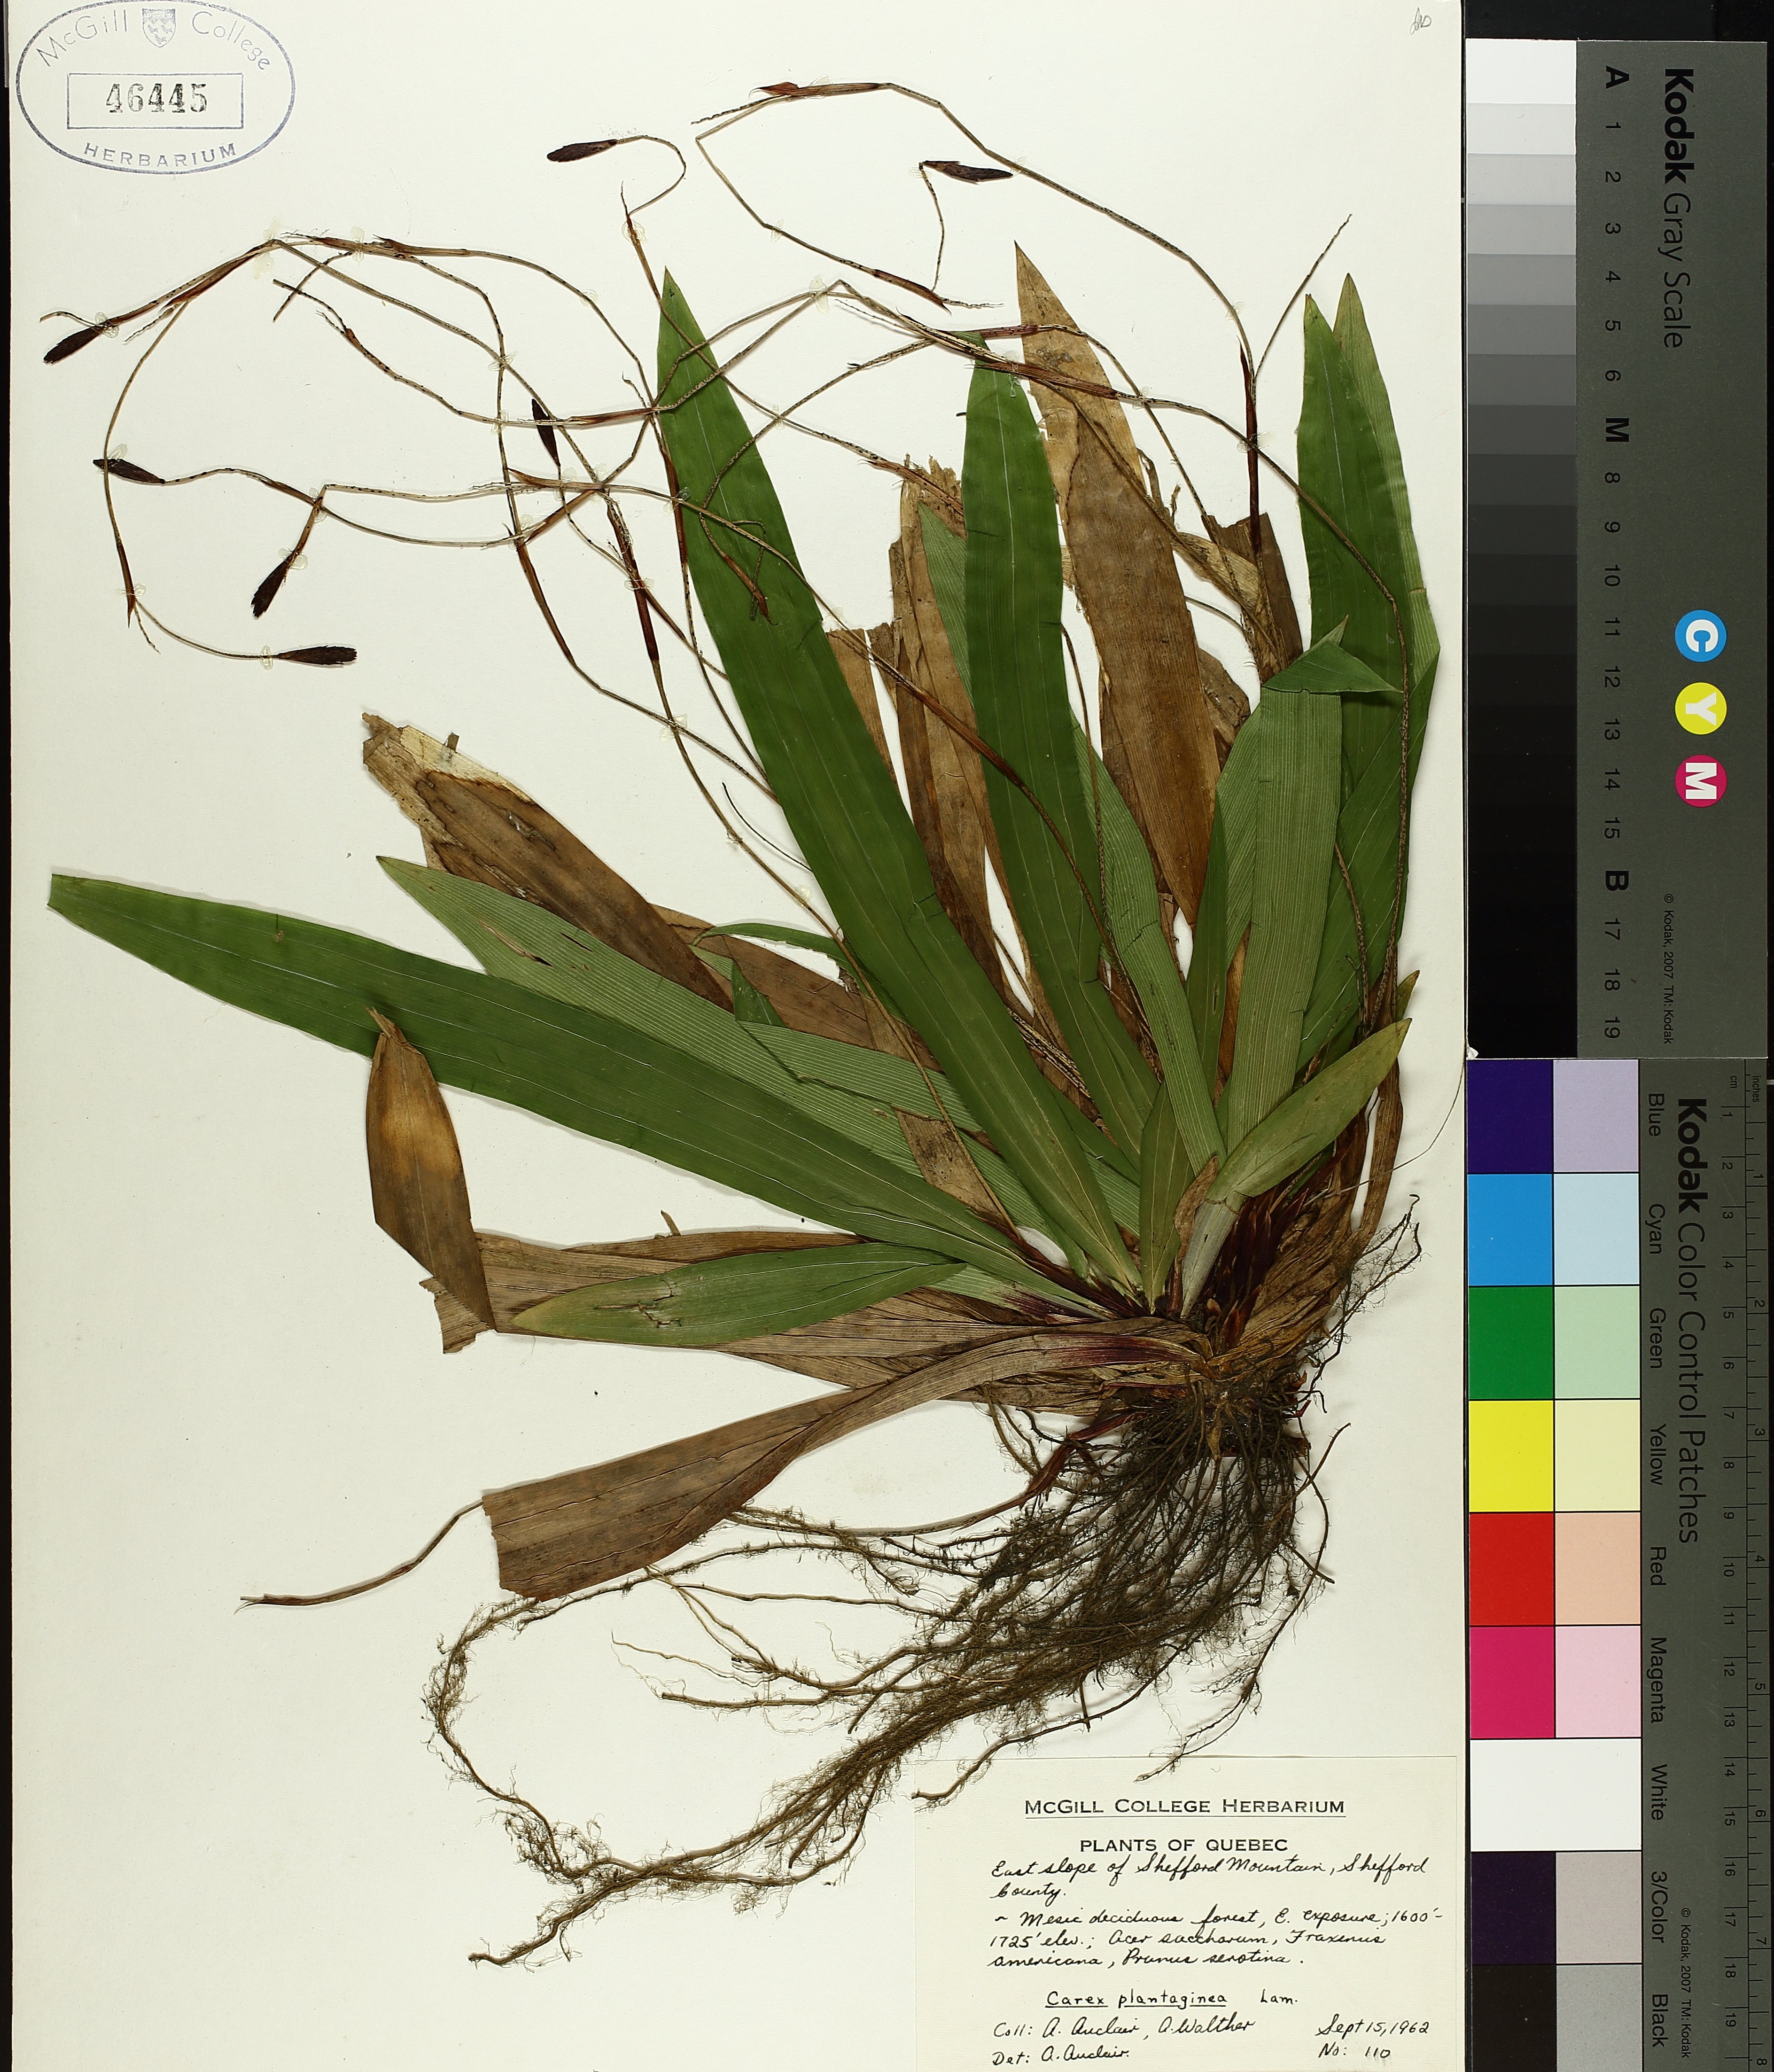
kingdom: Plantae
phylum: Tracheophyta
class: Liliopsida
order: Poales
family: Cyperaceae
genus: Carex
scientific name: Carex plantaginea
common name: Plantain-leaved sedge
